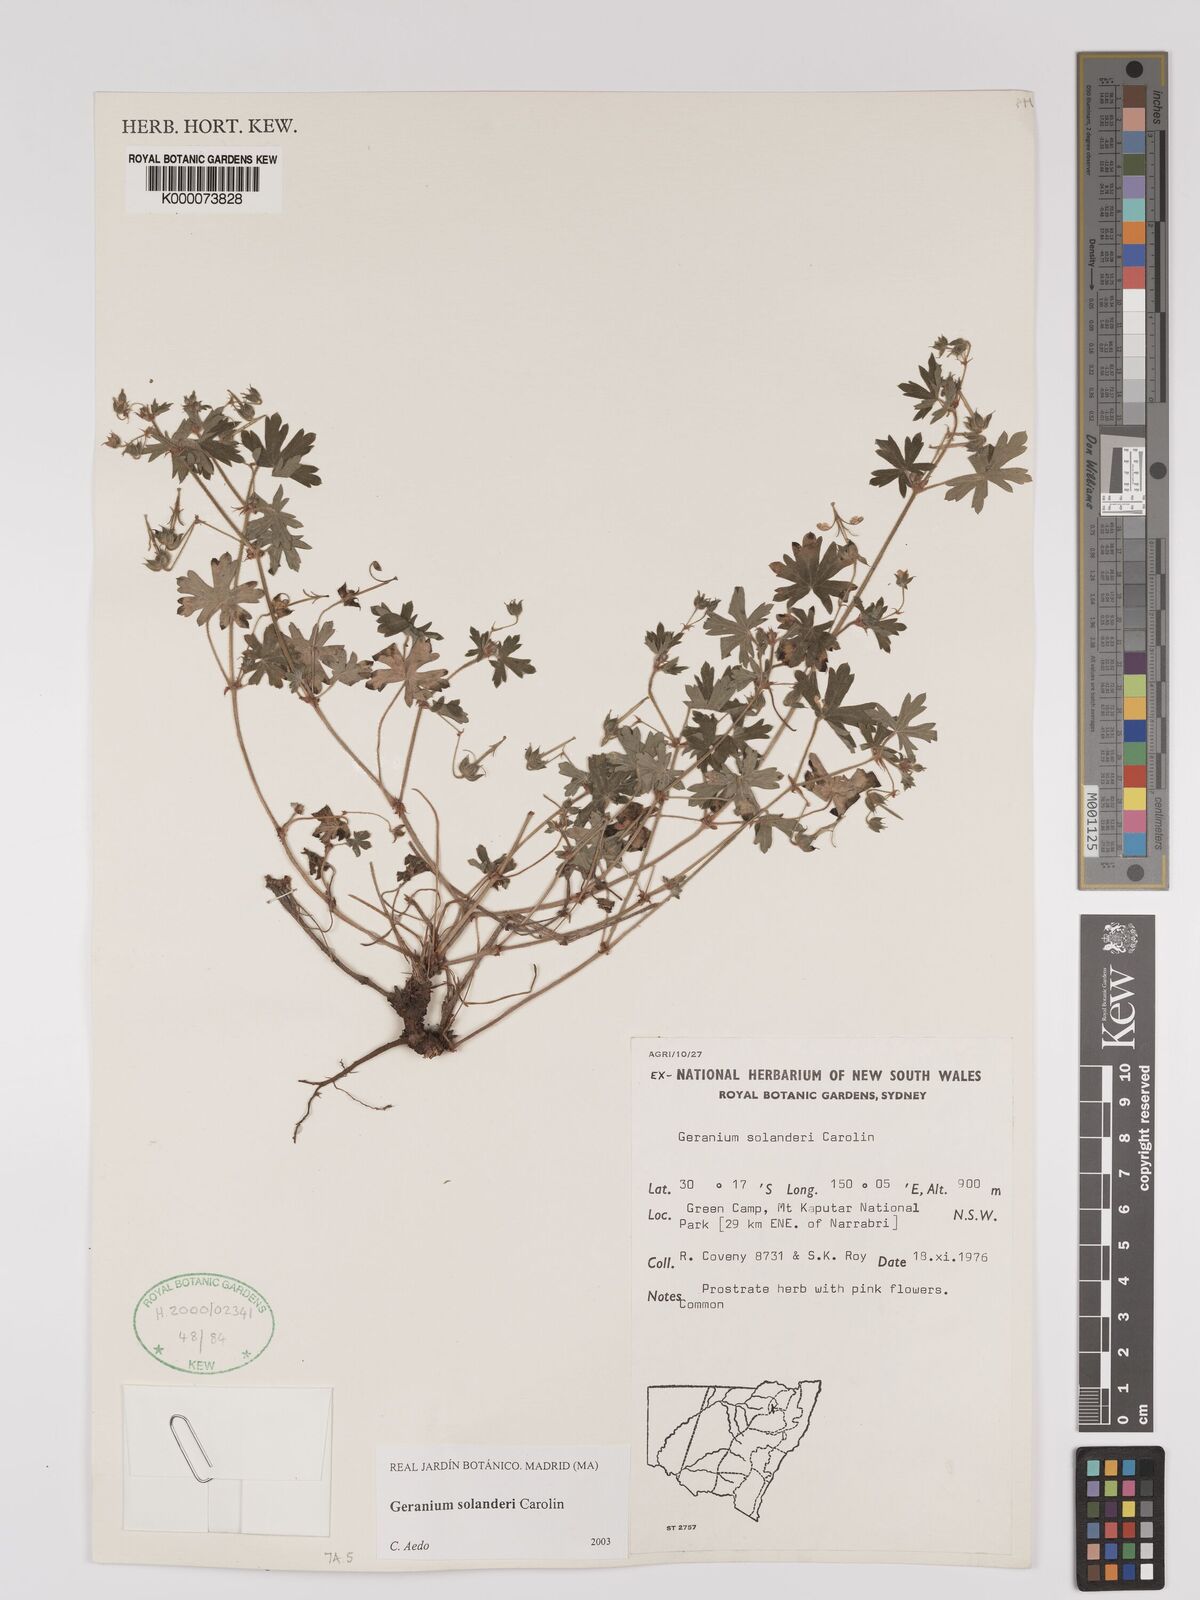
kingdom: Plantae
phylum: Tracheophyta
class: Magnoliopsida
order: Geraniales
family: Geraniaceae
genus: Geranium
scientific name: Geranium solanderi
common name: Solander's geranium
